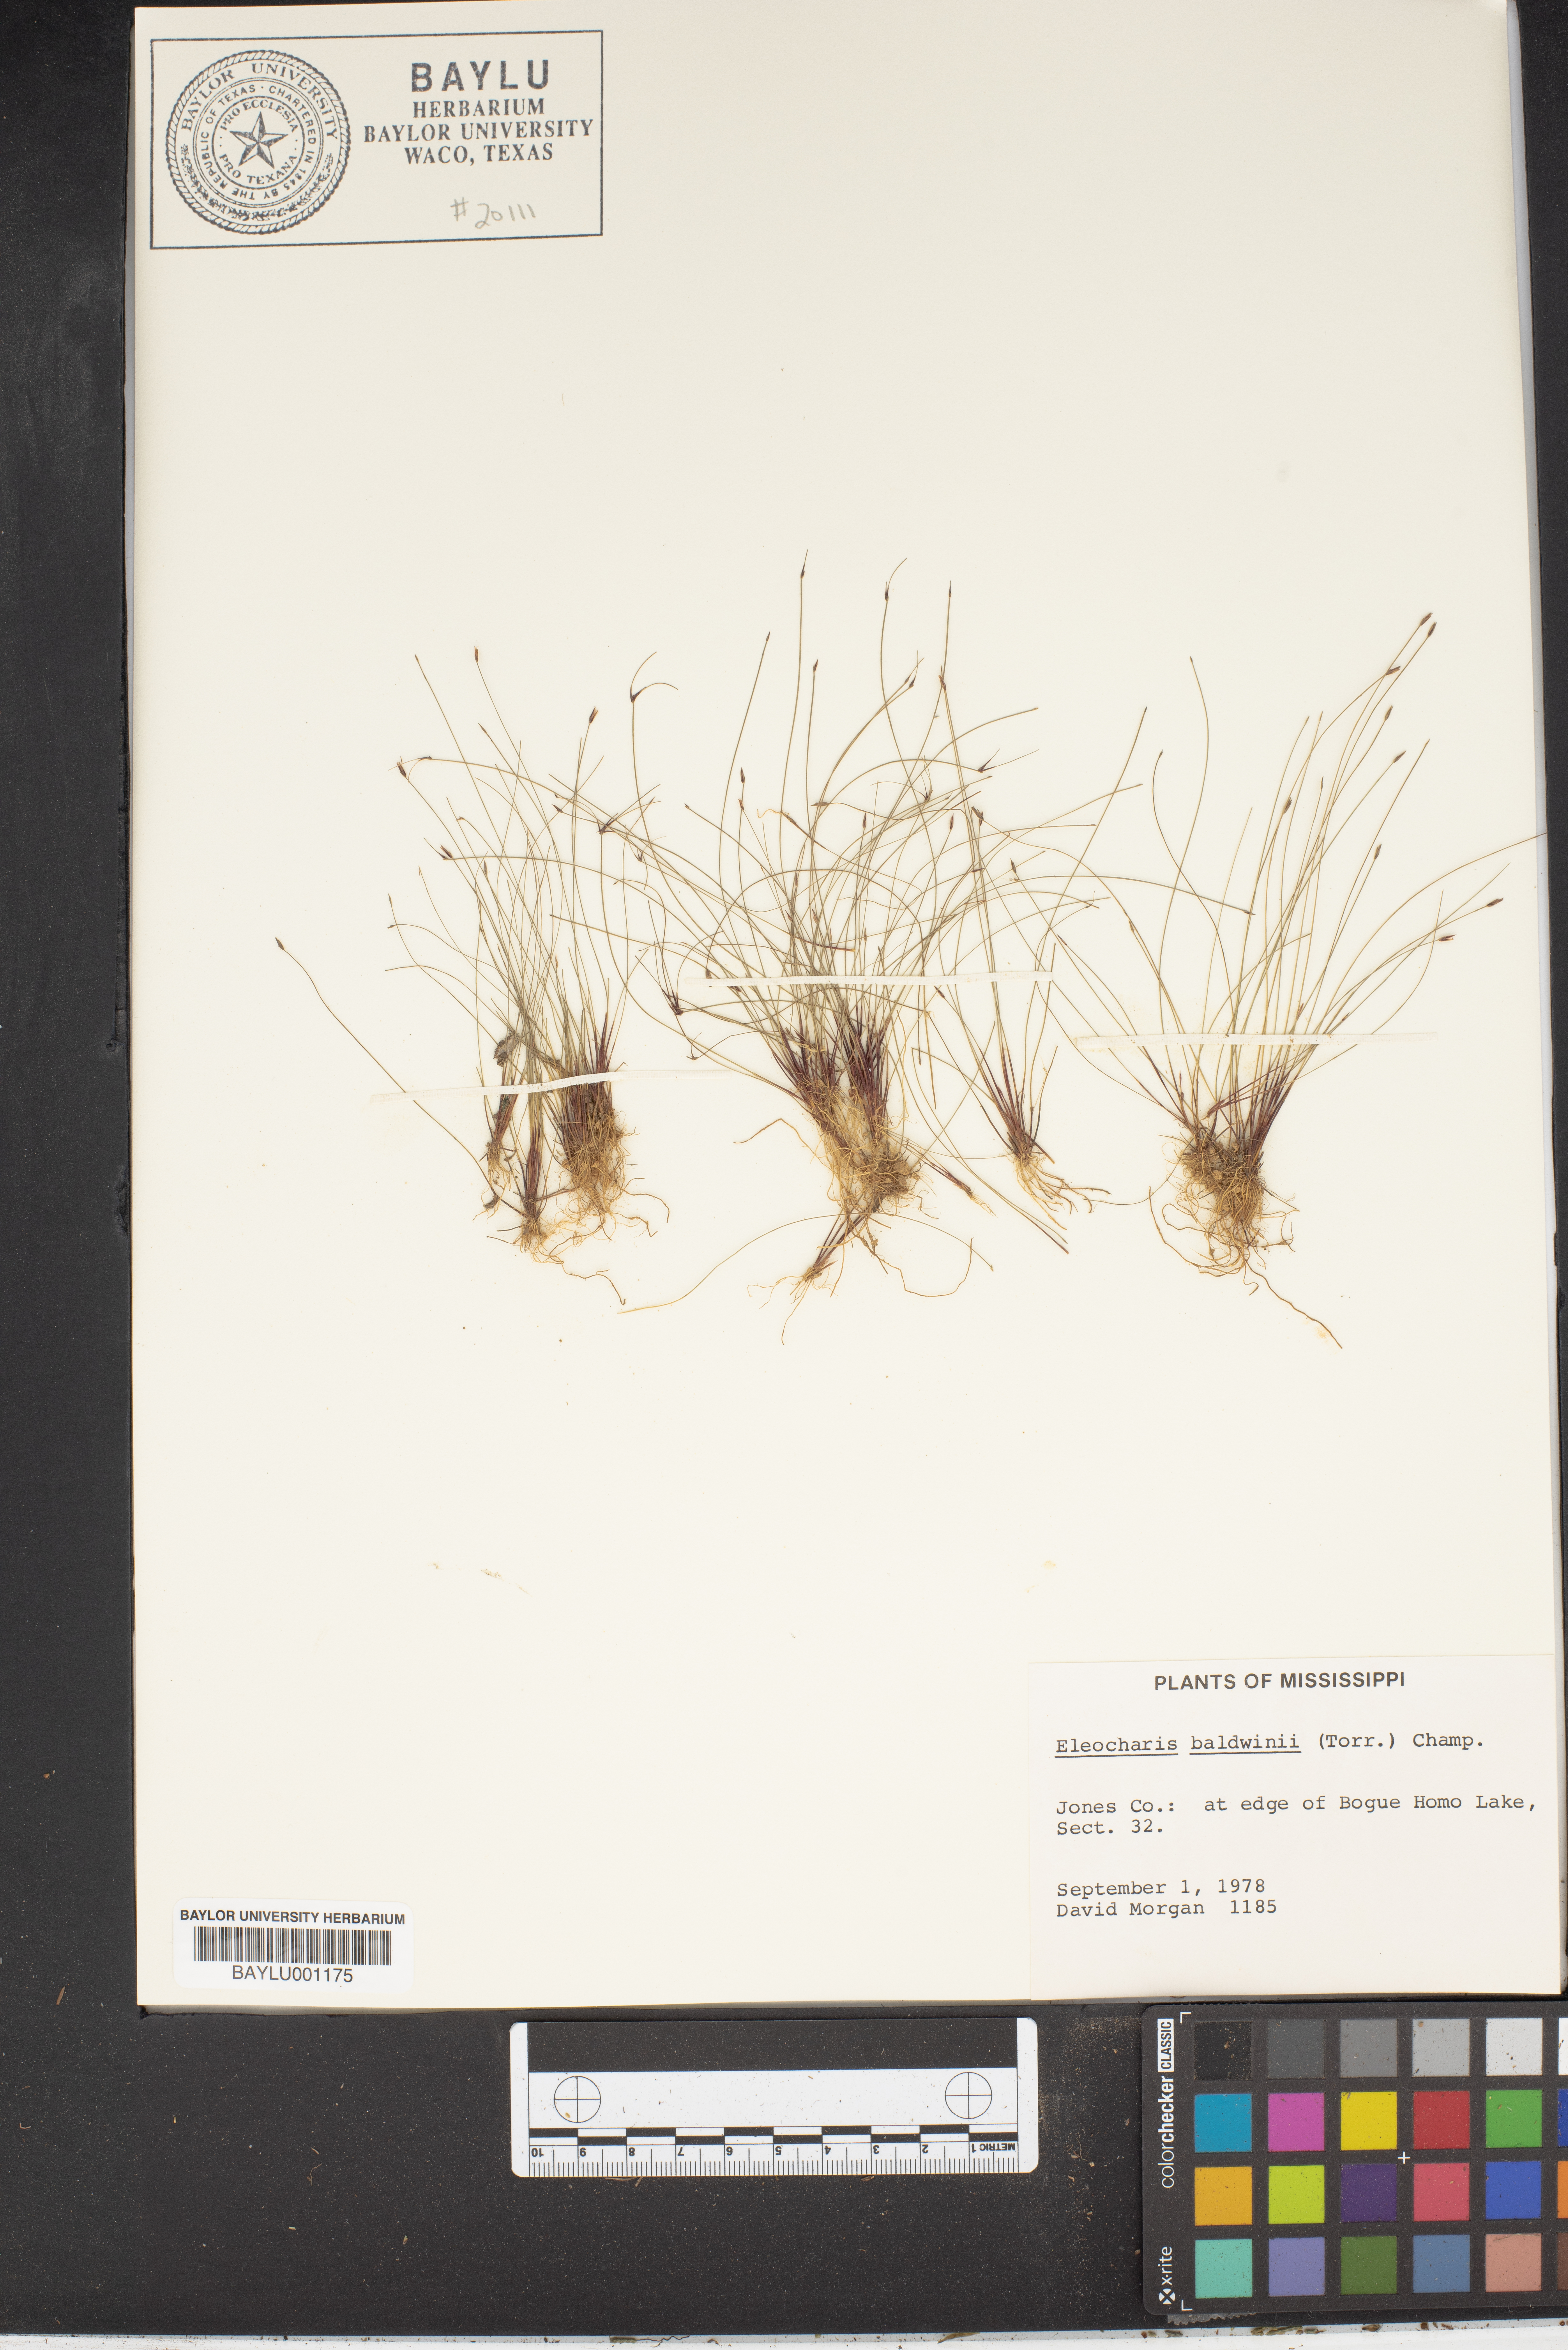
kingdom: Plantae
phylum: Tracheophyta
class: Liliopsida
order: Poales
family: Cyperaceae
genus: Eleocharis
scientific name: Eleocharis baldwinii
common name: Baldwin's spike-rush
